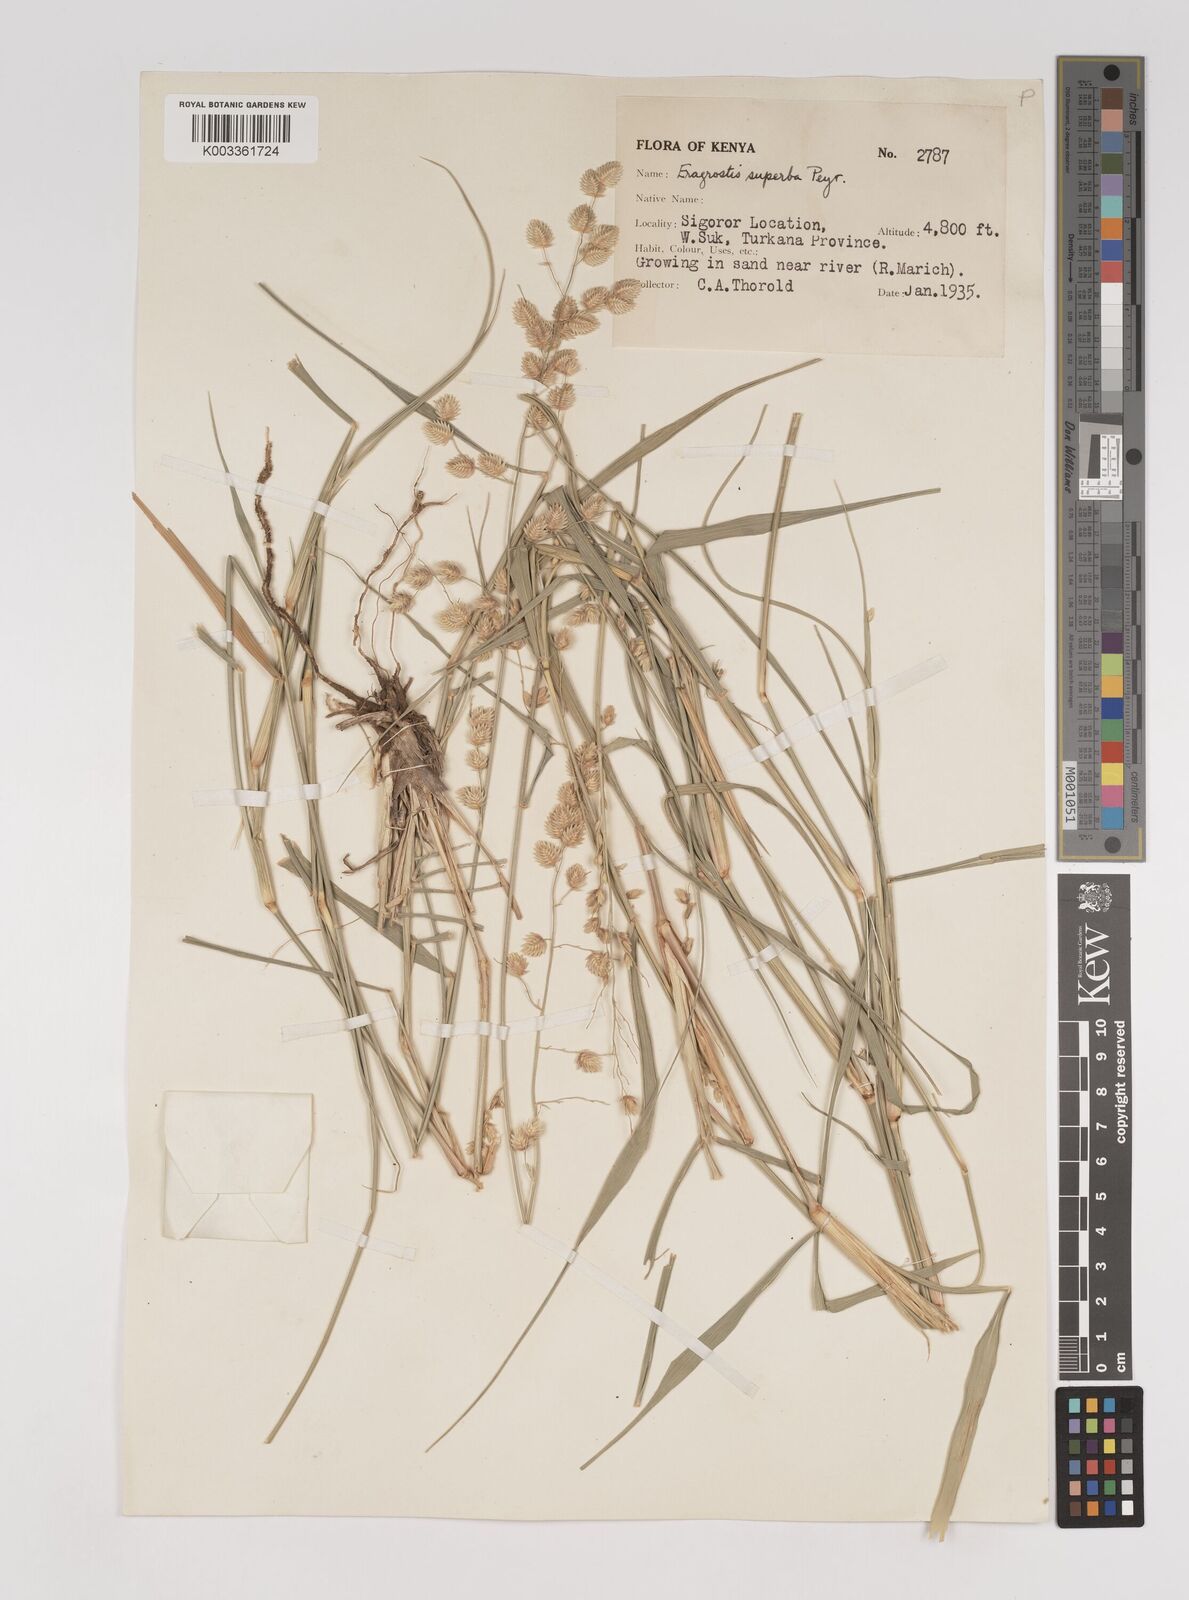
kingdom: Plantae
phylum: Tracheophyta
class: Liliopsida
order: Poales
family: Poaceae
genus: Eragrostis
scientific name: Eragrostis superba
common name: Wilman lovegrass
